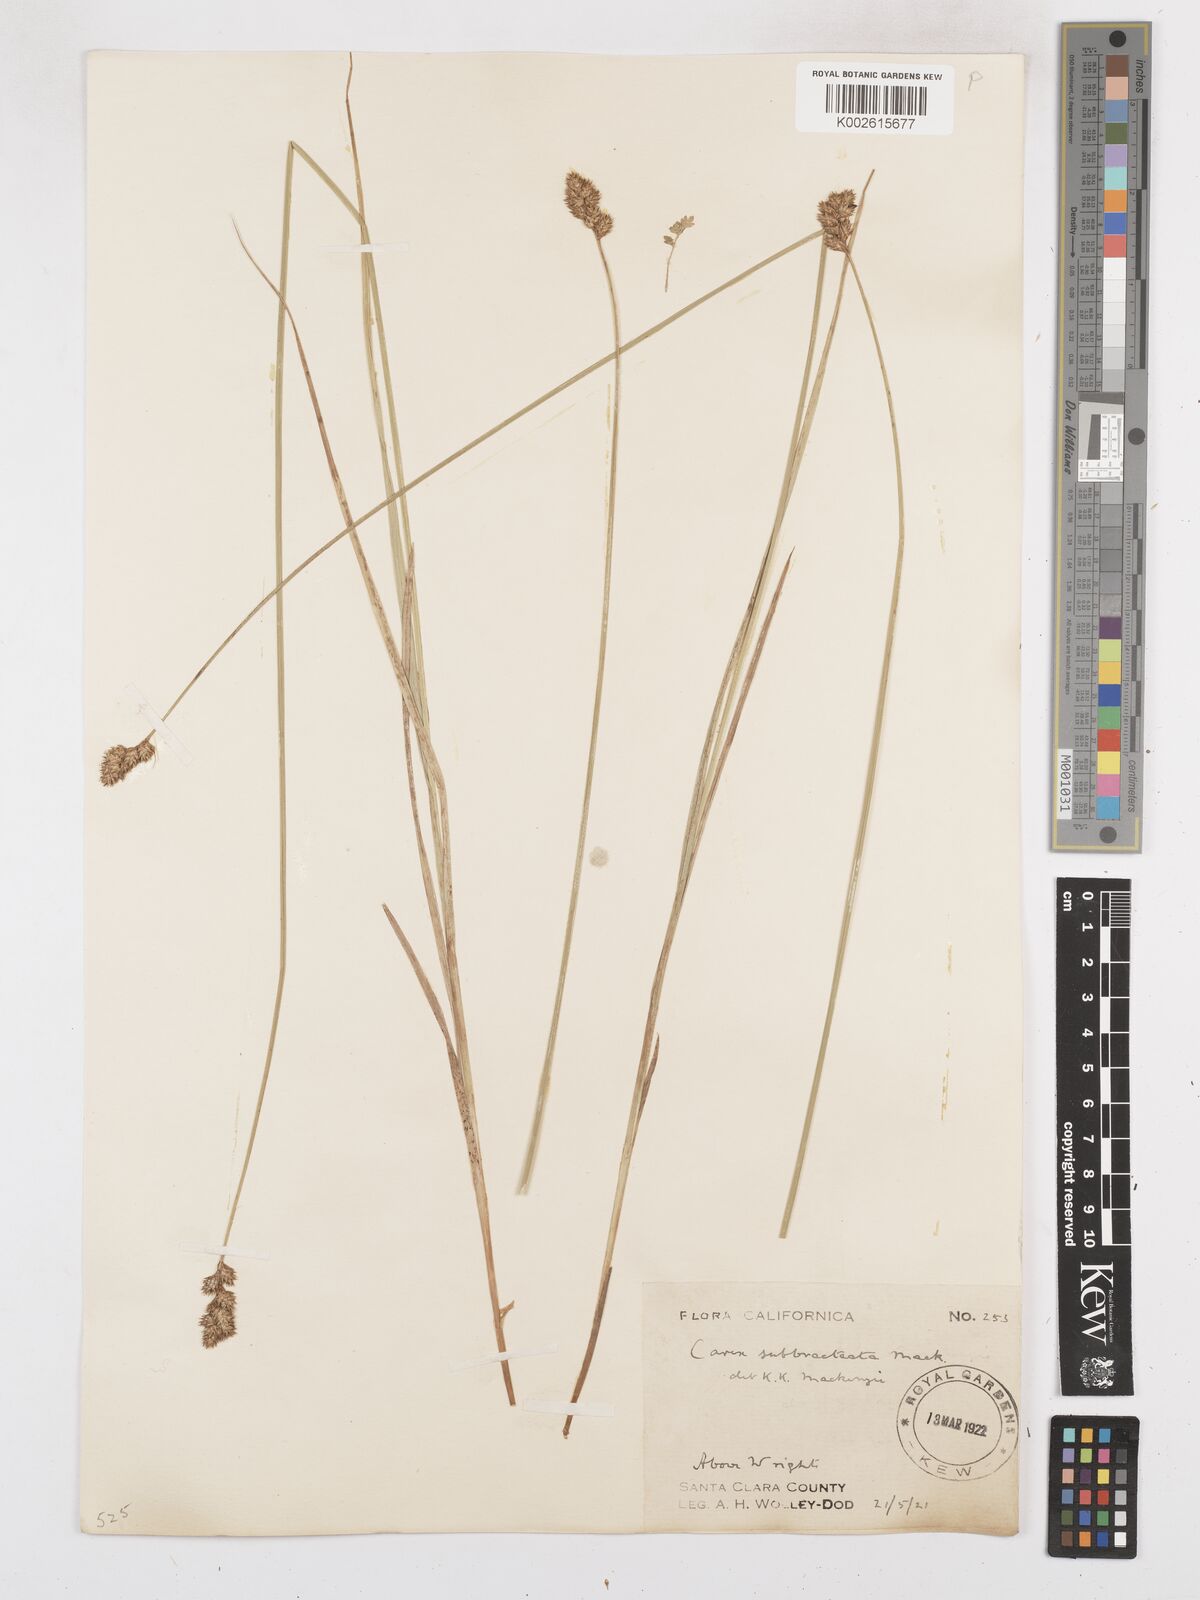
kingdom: Plantae
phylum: Tracheophyta
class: Liliopsida
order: Poales
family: Cyperaceae
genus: Carex
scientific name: Carex subbracteata
